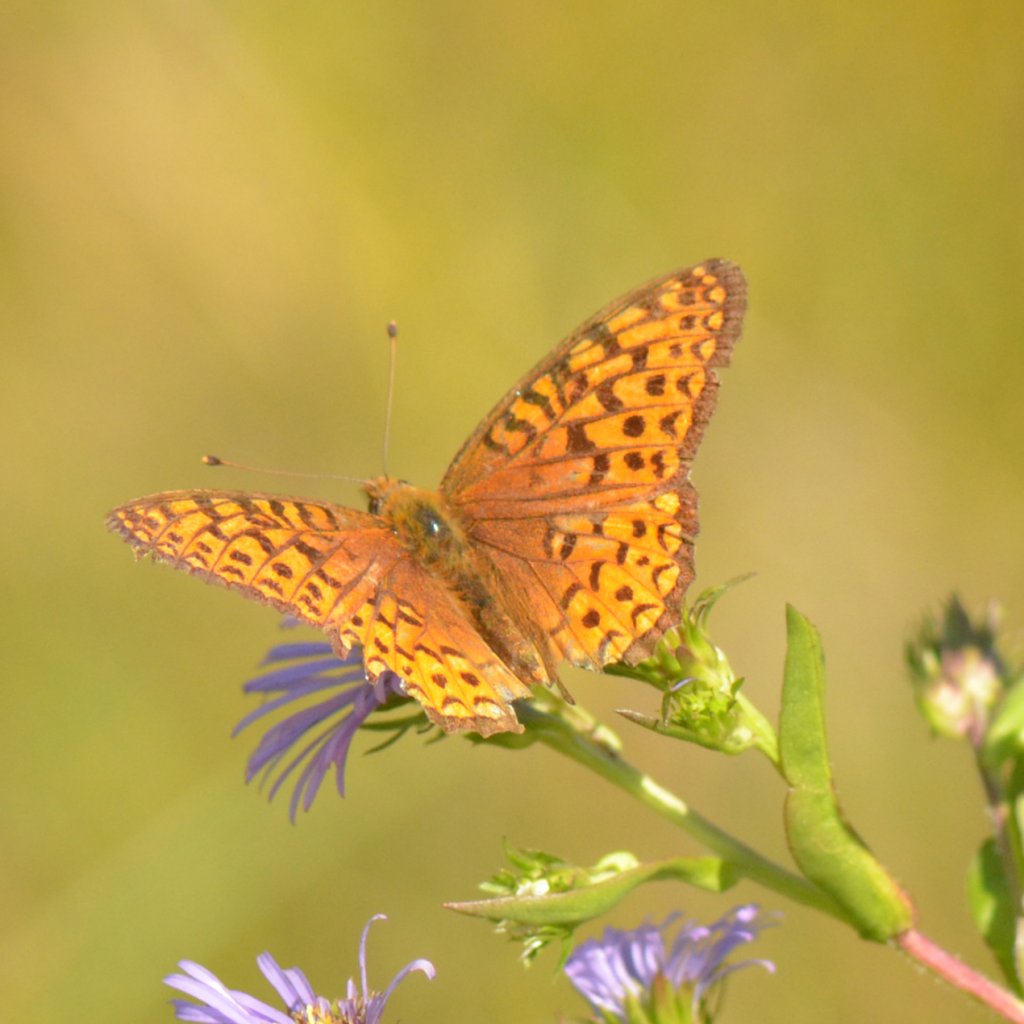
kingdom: Animalia
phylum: Arthropoda
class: Insecta
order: Lepidoptera
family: Nymphalidae
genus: Speyeria
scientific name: Speyeria atlantis
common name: Atlantis Fritillary
